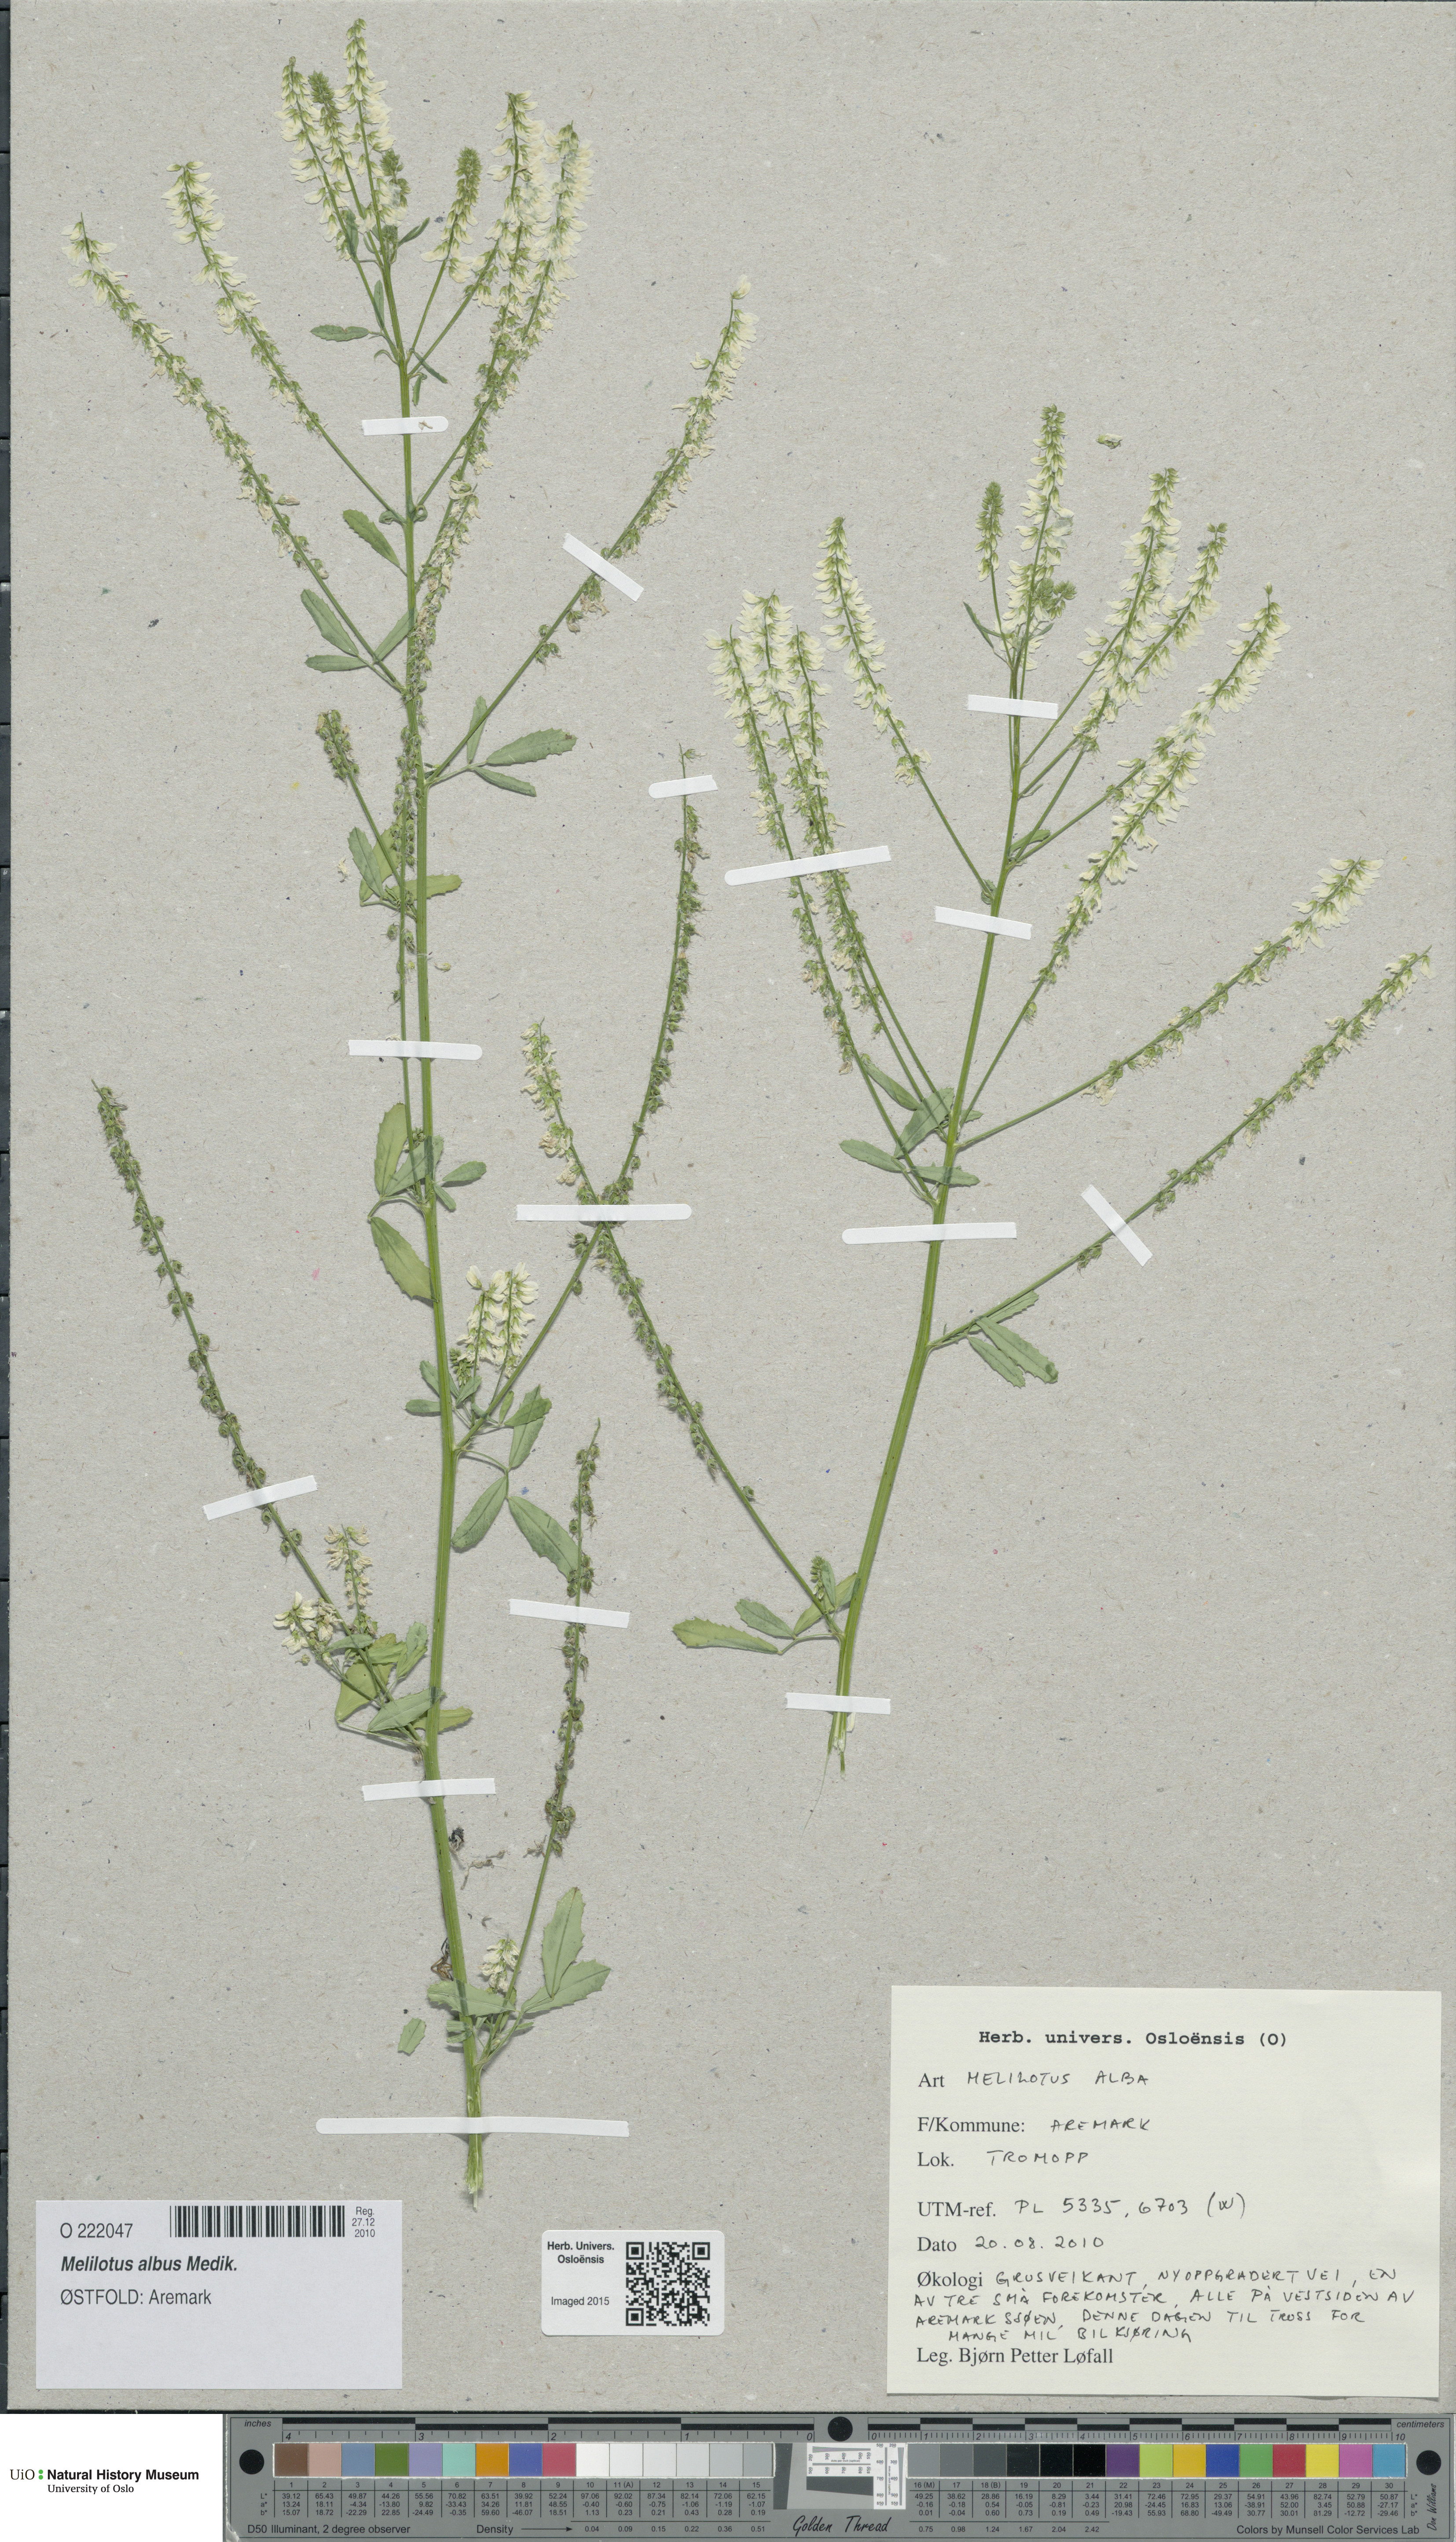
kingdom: Plantae
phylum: Tracheophyta
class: Magnoliopsida
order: Fabales
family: Fabaceae
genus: Melilotus
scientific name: Melilotus albus
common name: White melilot
